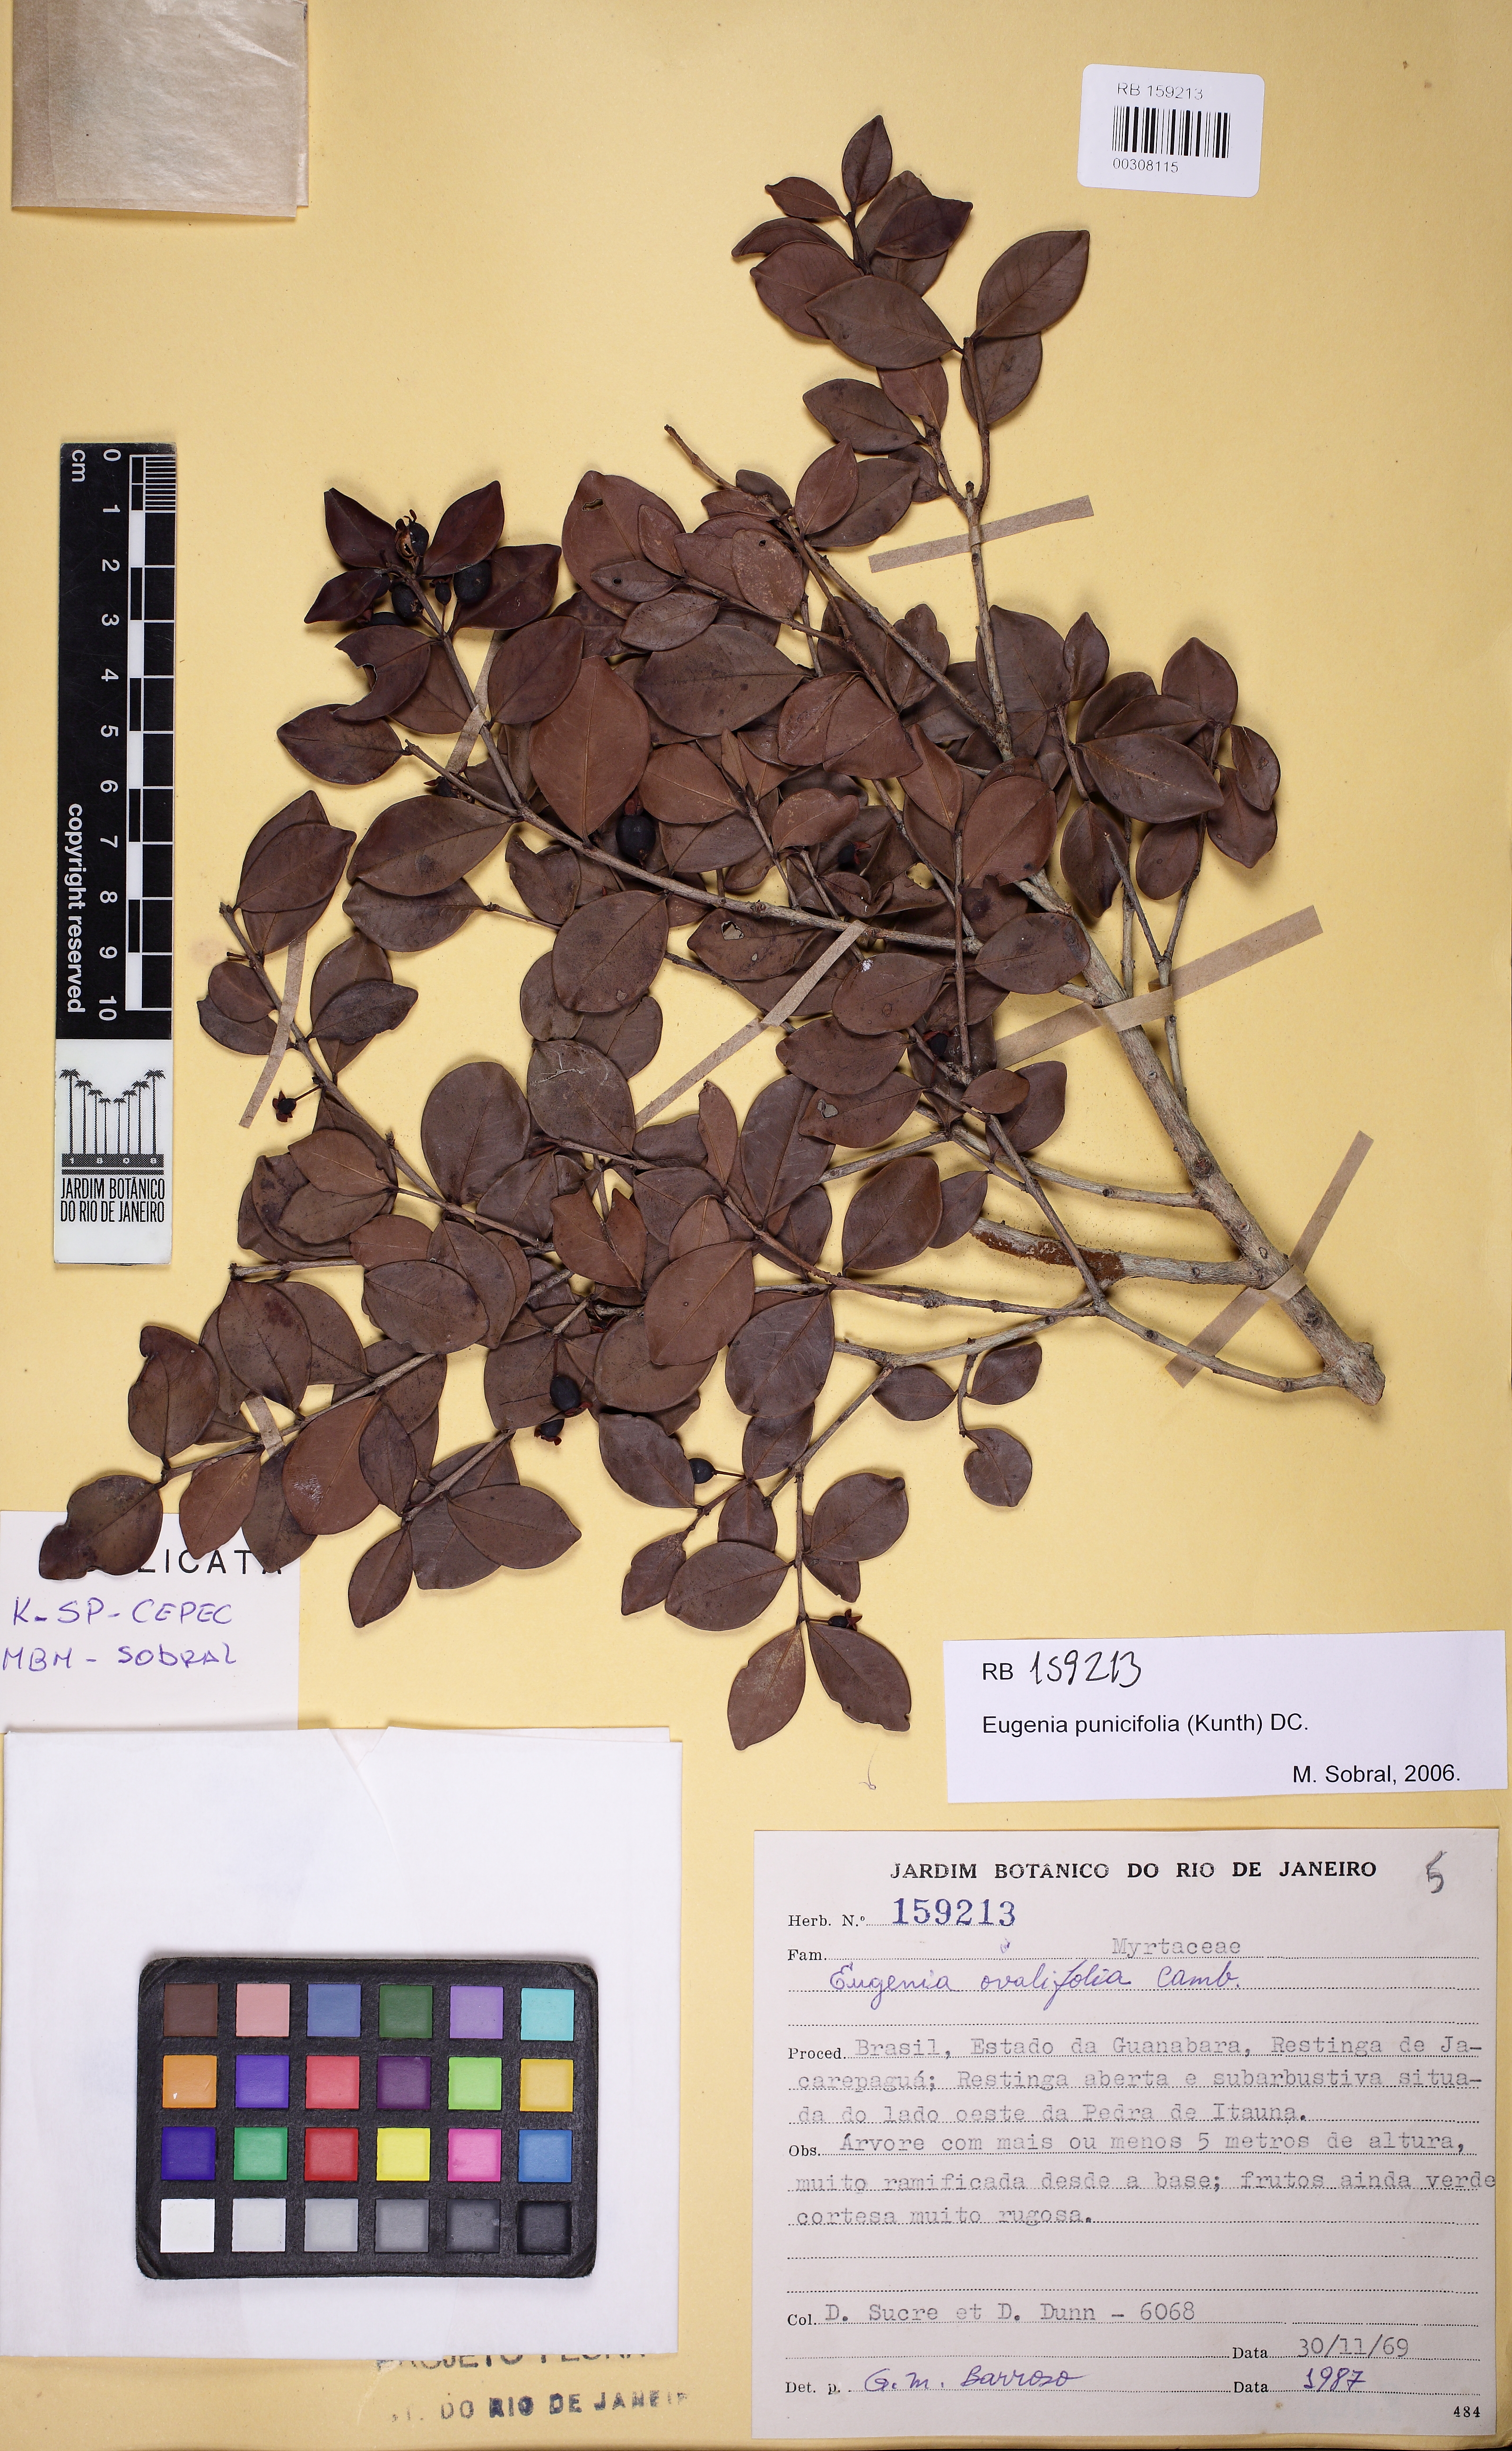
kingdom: Plantae
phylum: Tracheophyta
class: Magnoliopsida
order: Myrtales
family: Myrtaceae
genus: Eugenia
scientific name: Eugenia punicifolia
